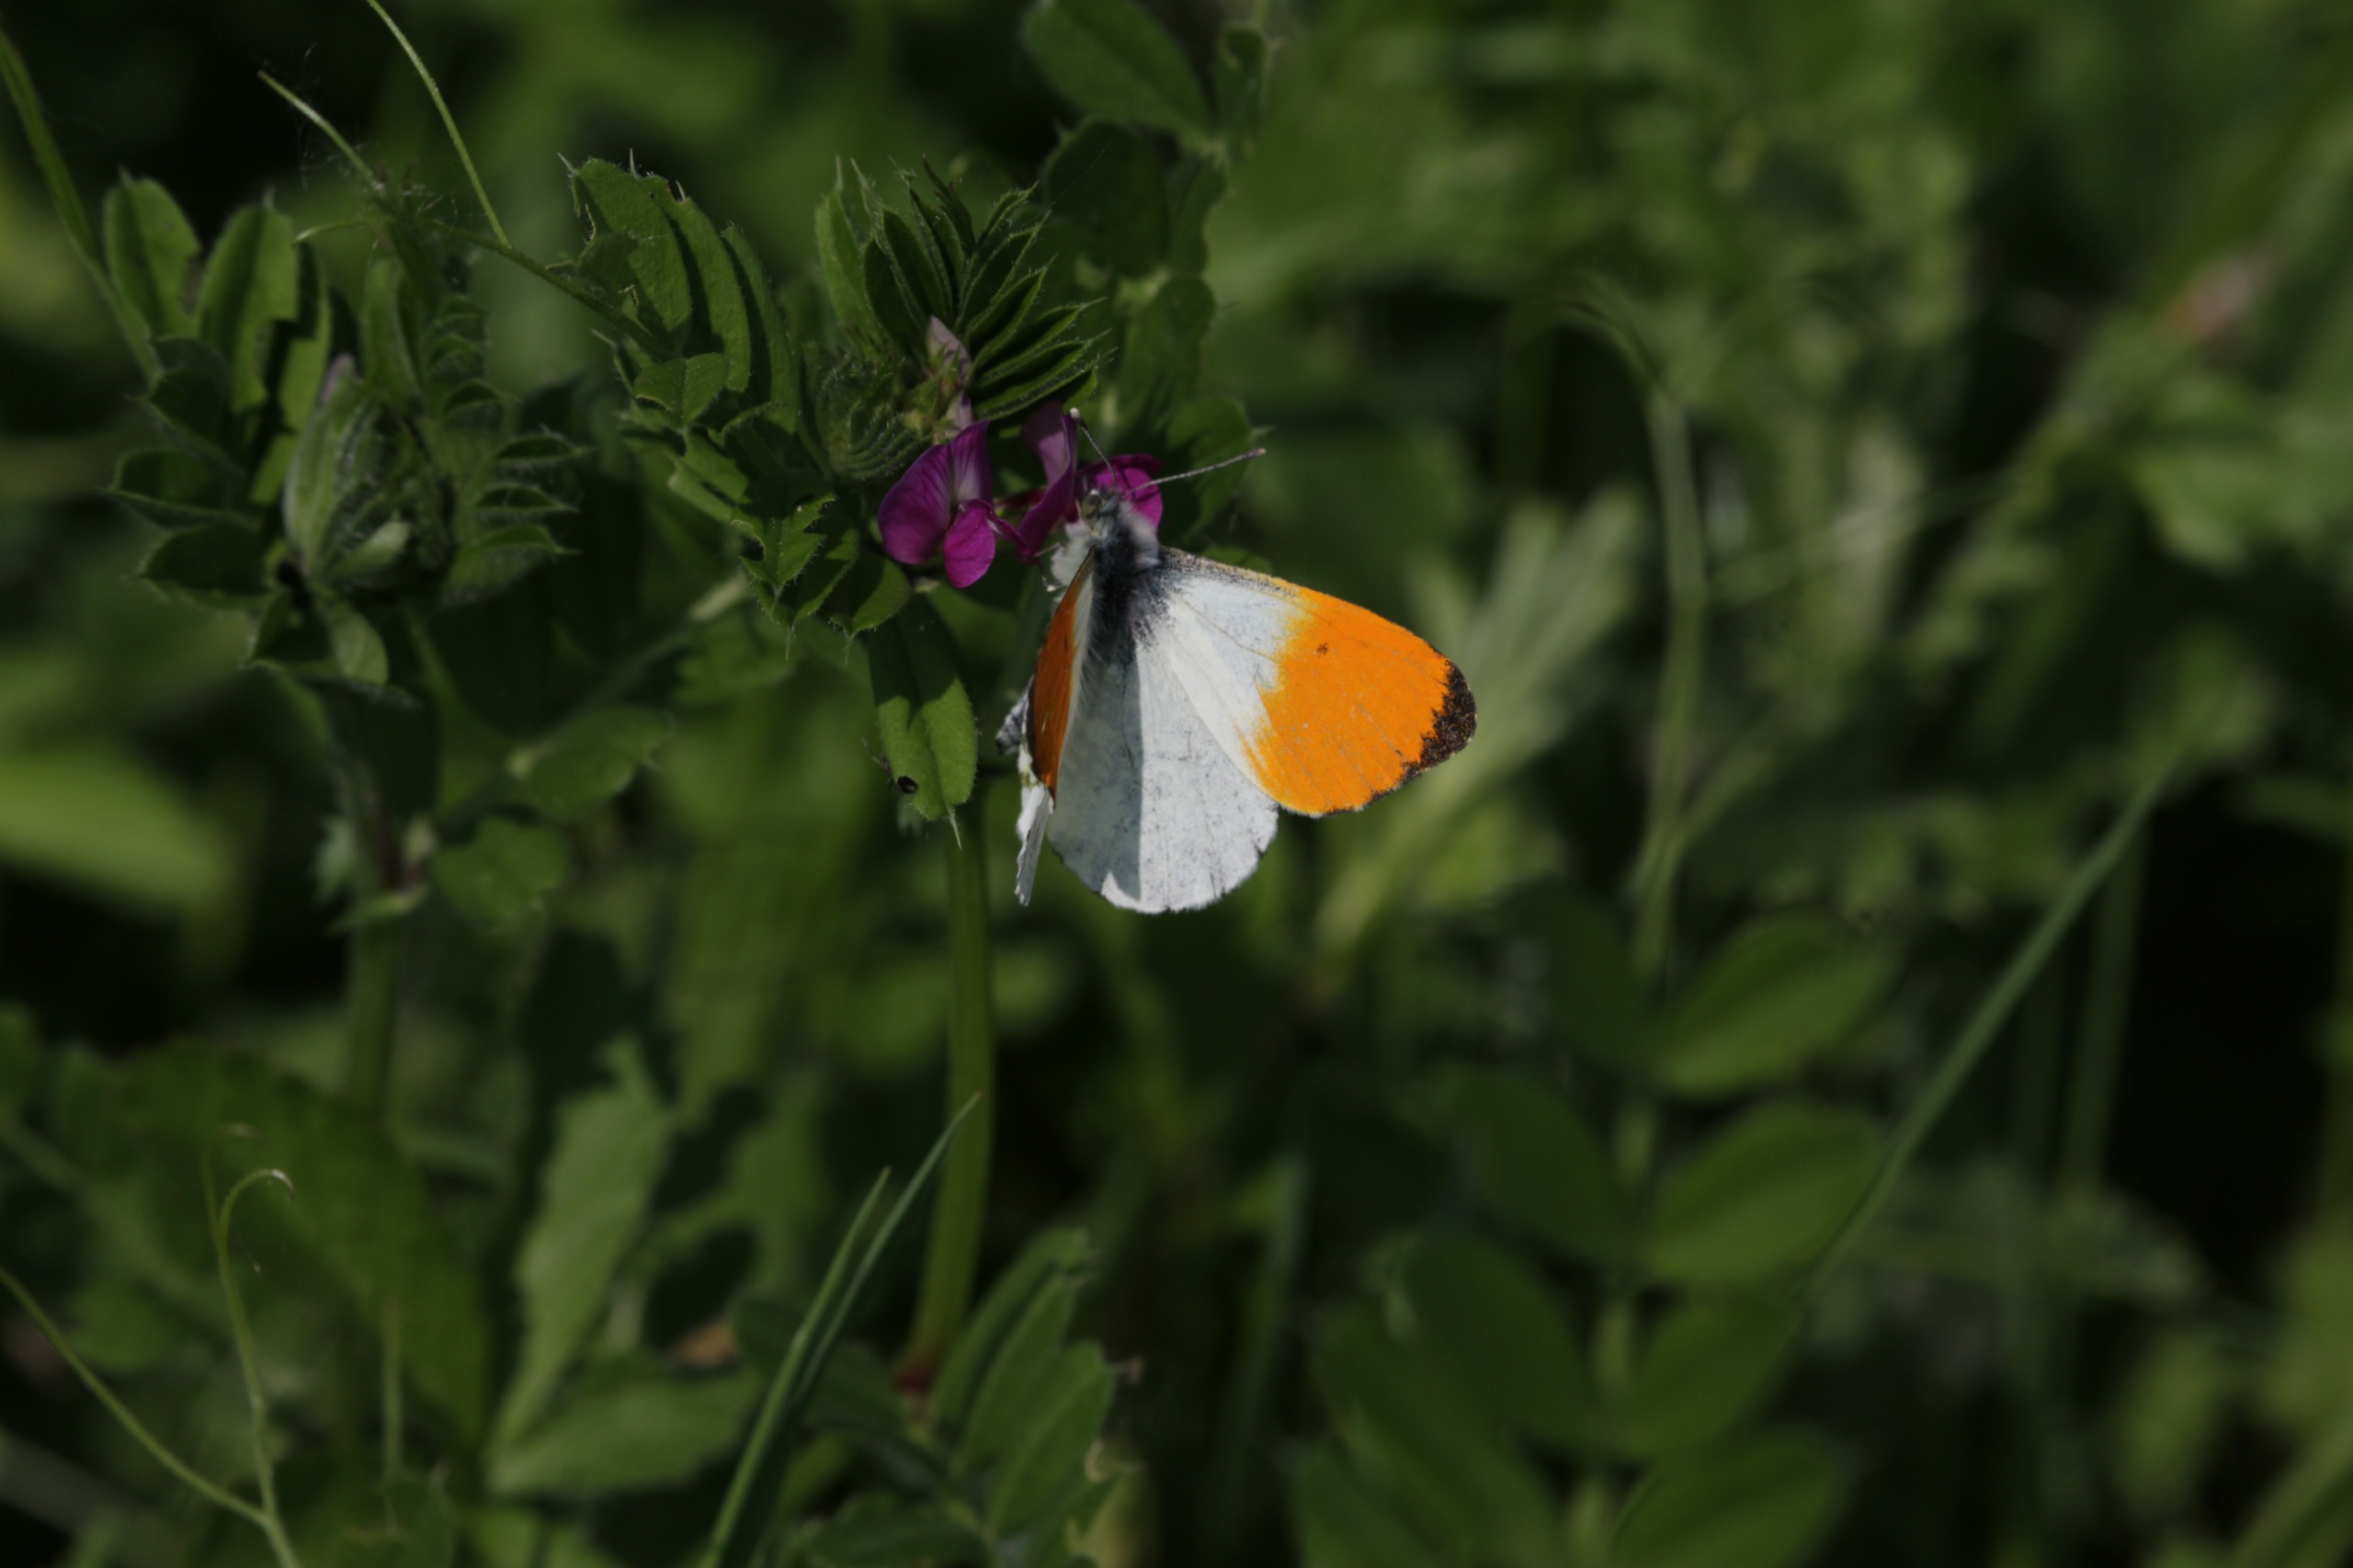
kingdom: Animalia
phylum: Arthropoda
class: Insecta
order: Lepidoptera
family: Pieridae
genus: Anthocharis
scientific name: Anthocharis cardamines
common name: Aurora
